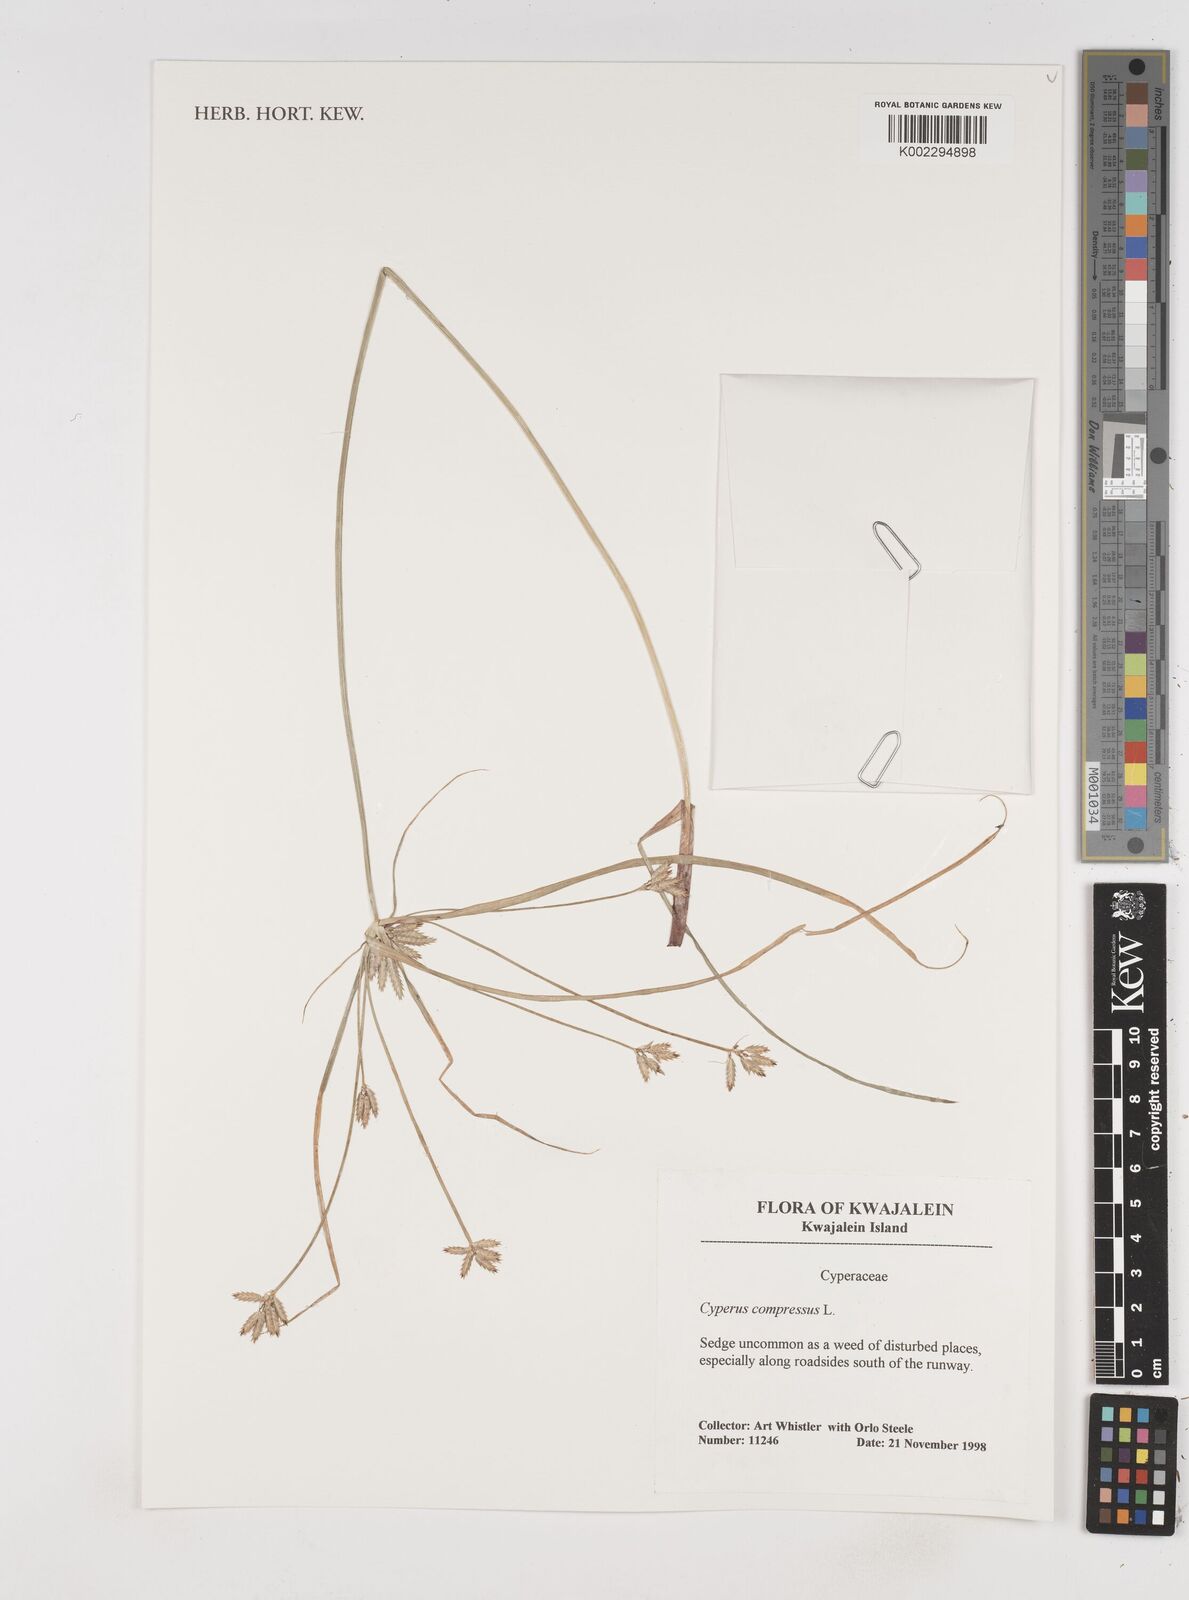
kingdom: Plantae
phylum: Tracheophyta
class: Liliopsida
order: Poales
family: Cyperaceae
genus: Cyperus
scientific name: Cyperus compressus
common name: Poorland flatsedge
